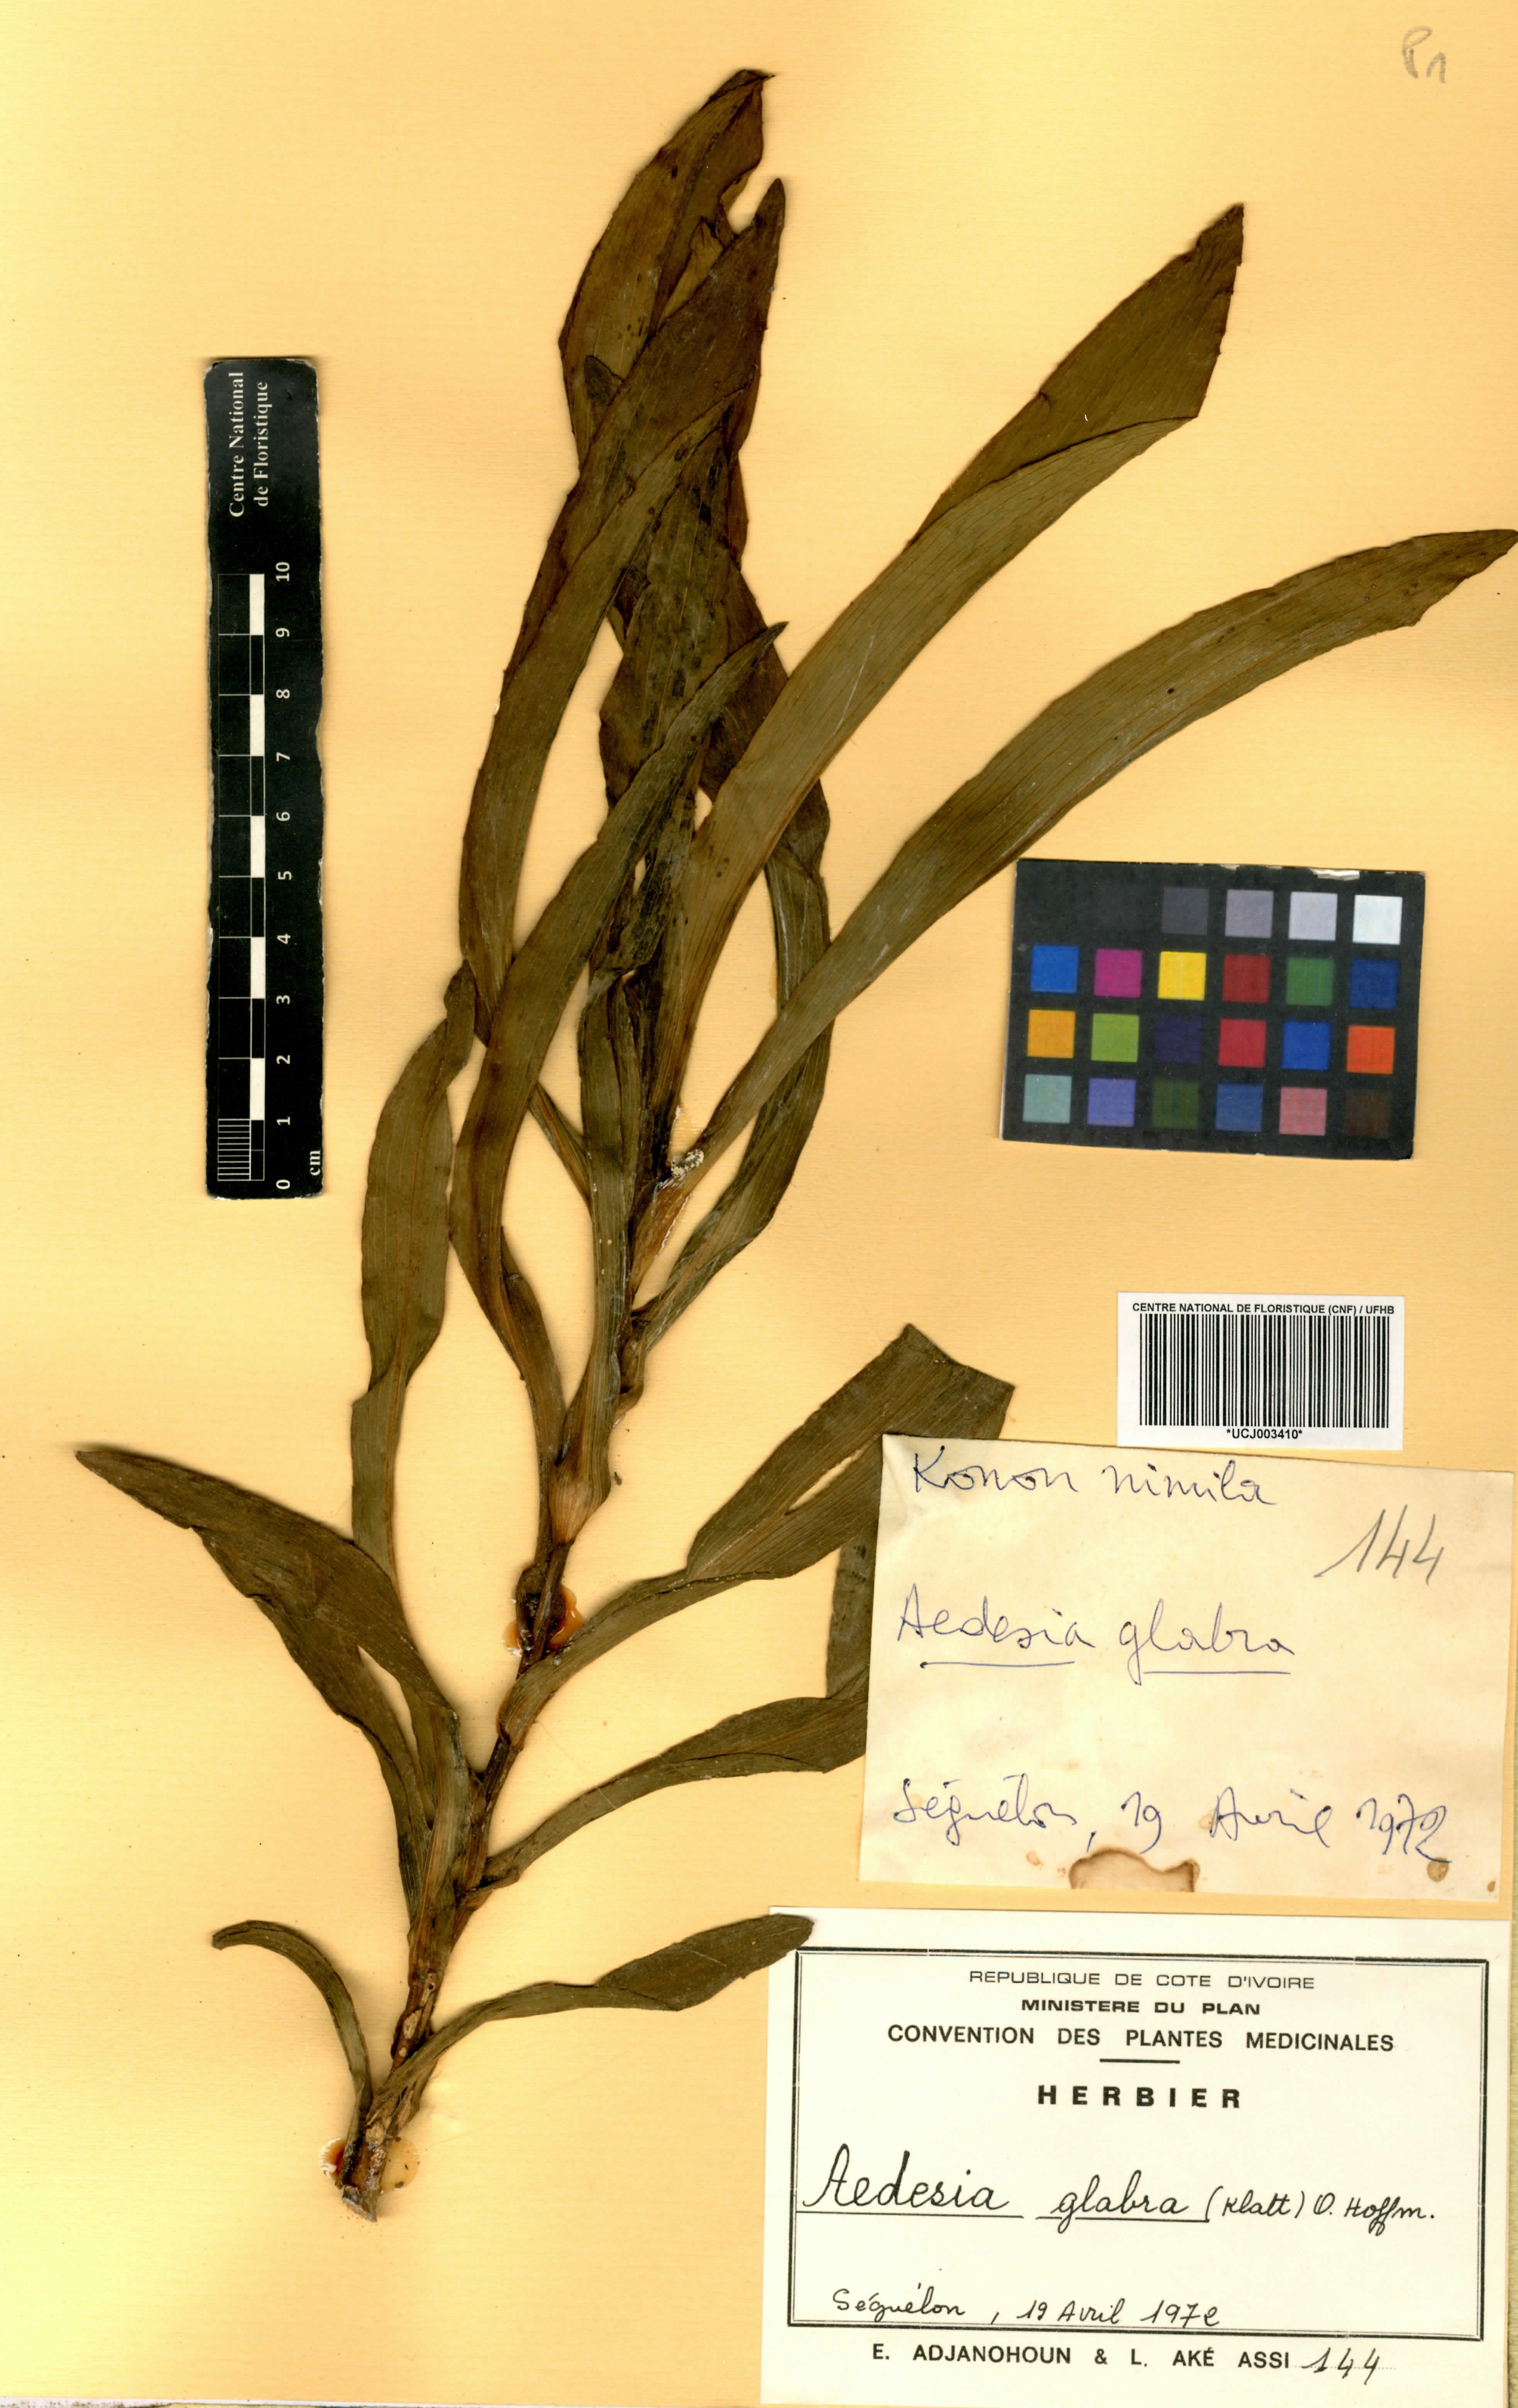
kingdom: Plantae
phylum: Tracheophyta
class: Magnoliopsida
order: Asterales
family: Asteraceae
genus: Aedesia
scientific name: Aedesia glabra
